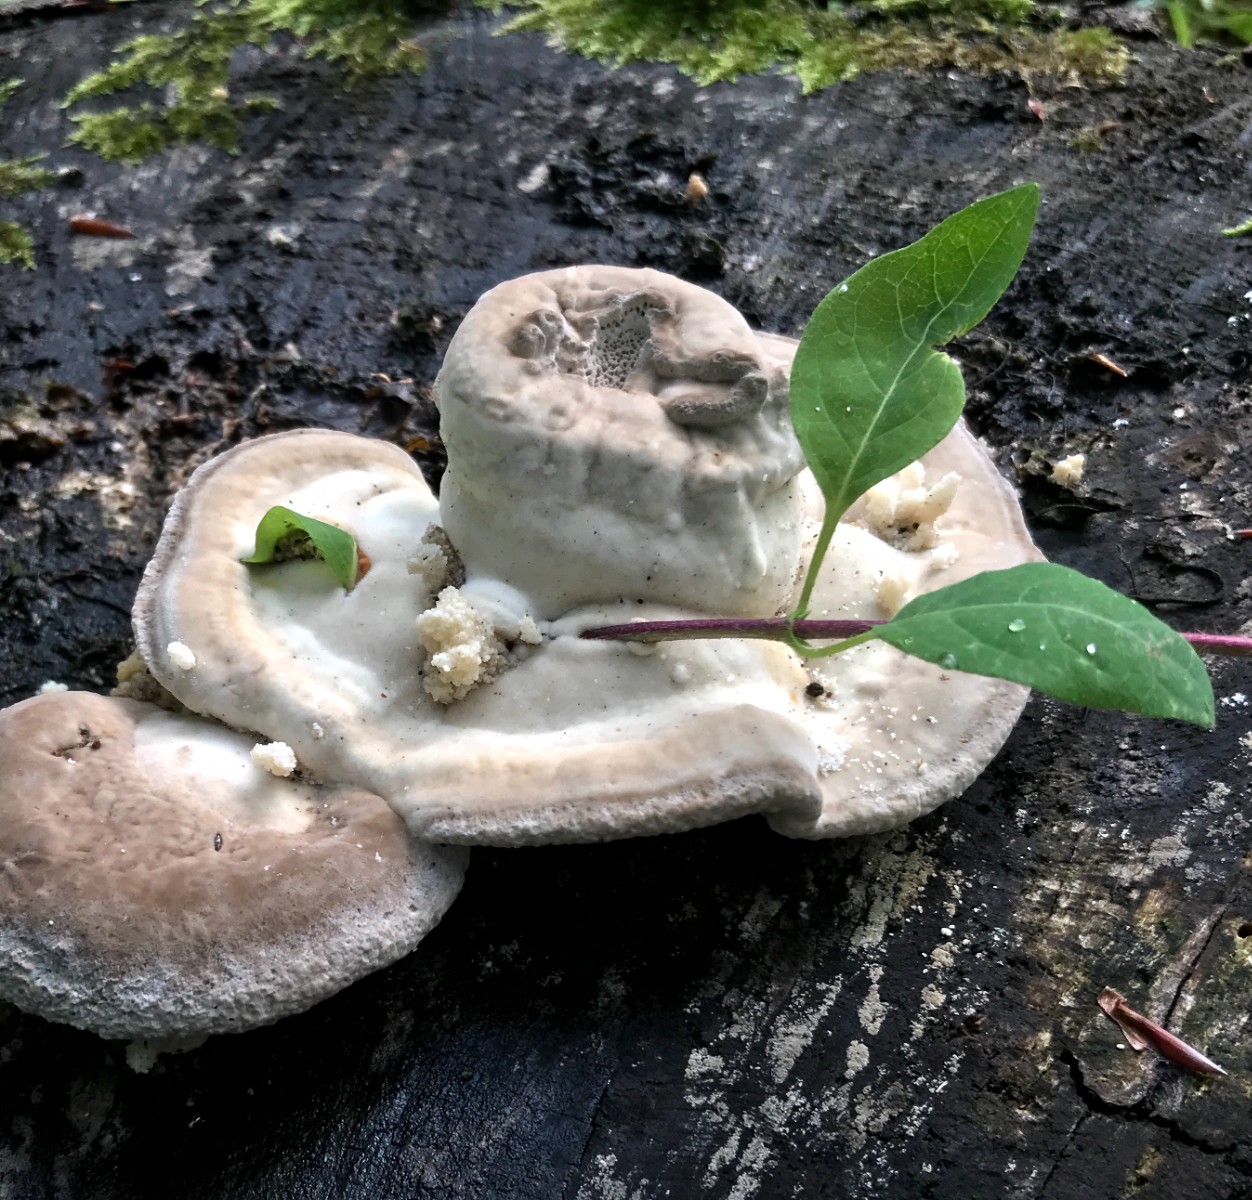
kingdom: Fungi
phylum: Basidiomycota
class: Agaricomycetes
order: Polyporales
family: Polyporaceae
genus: Trametes
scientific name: Trametes gibbosa
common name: puklet læderporesvamp
